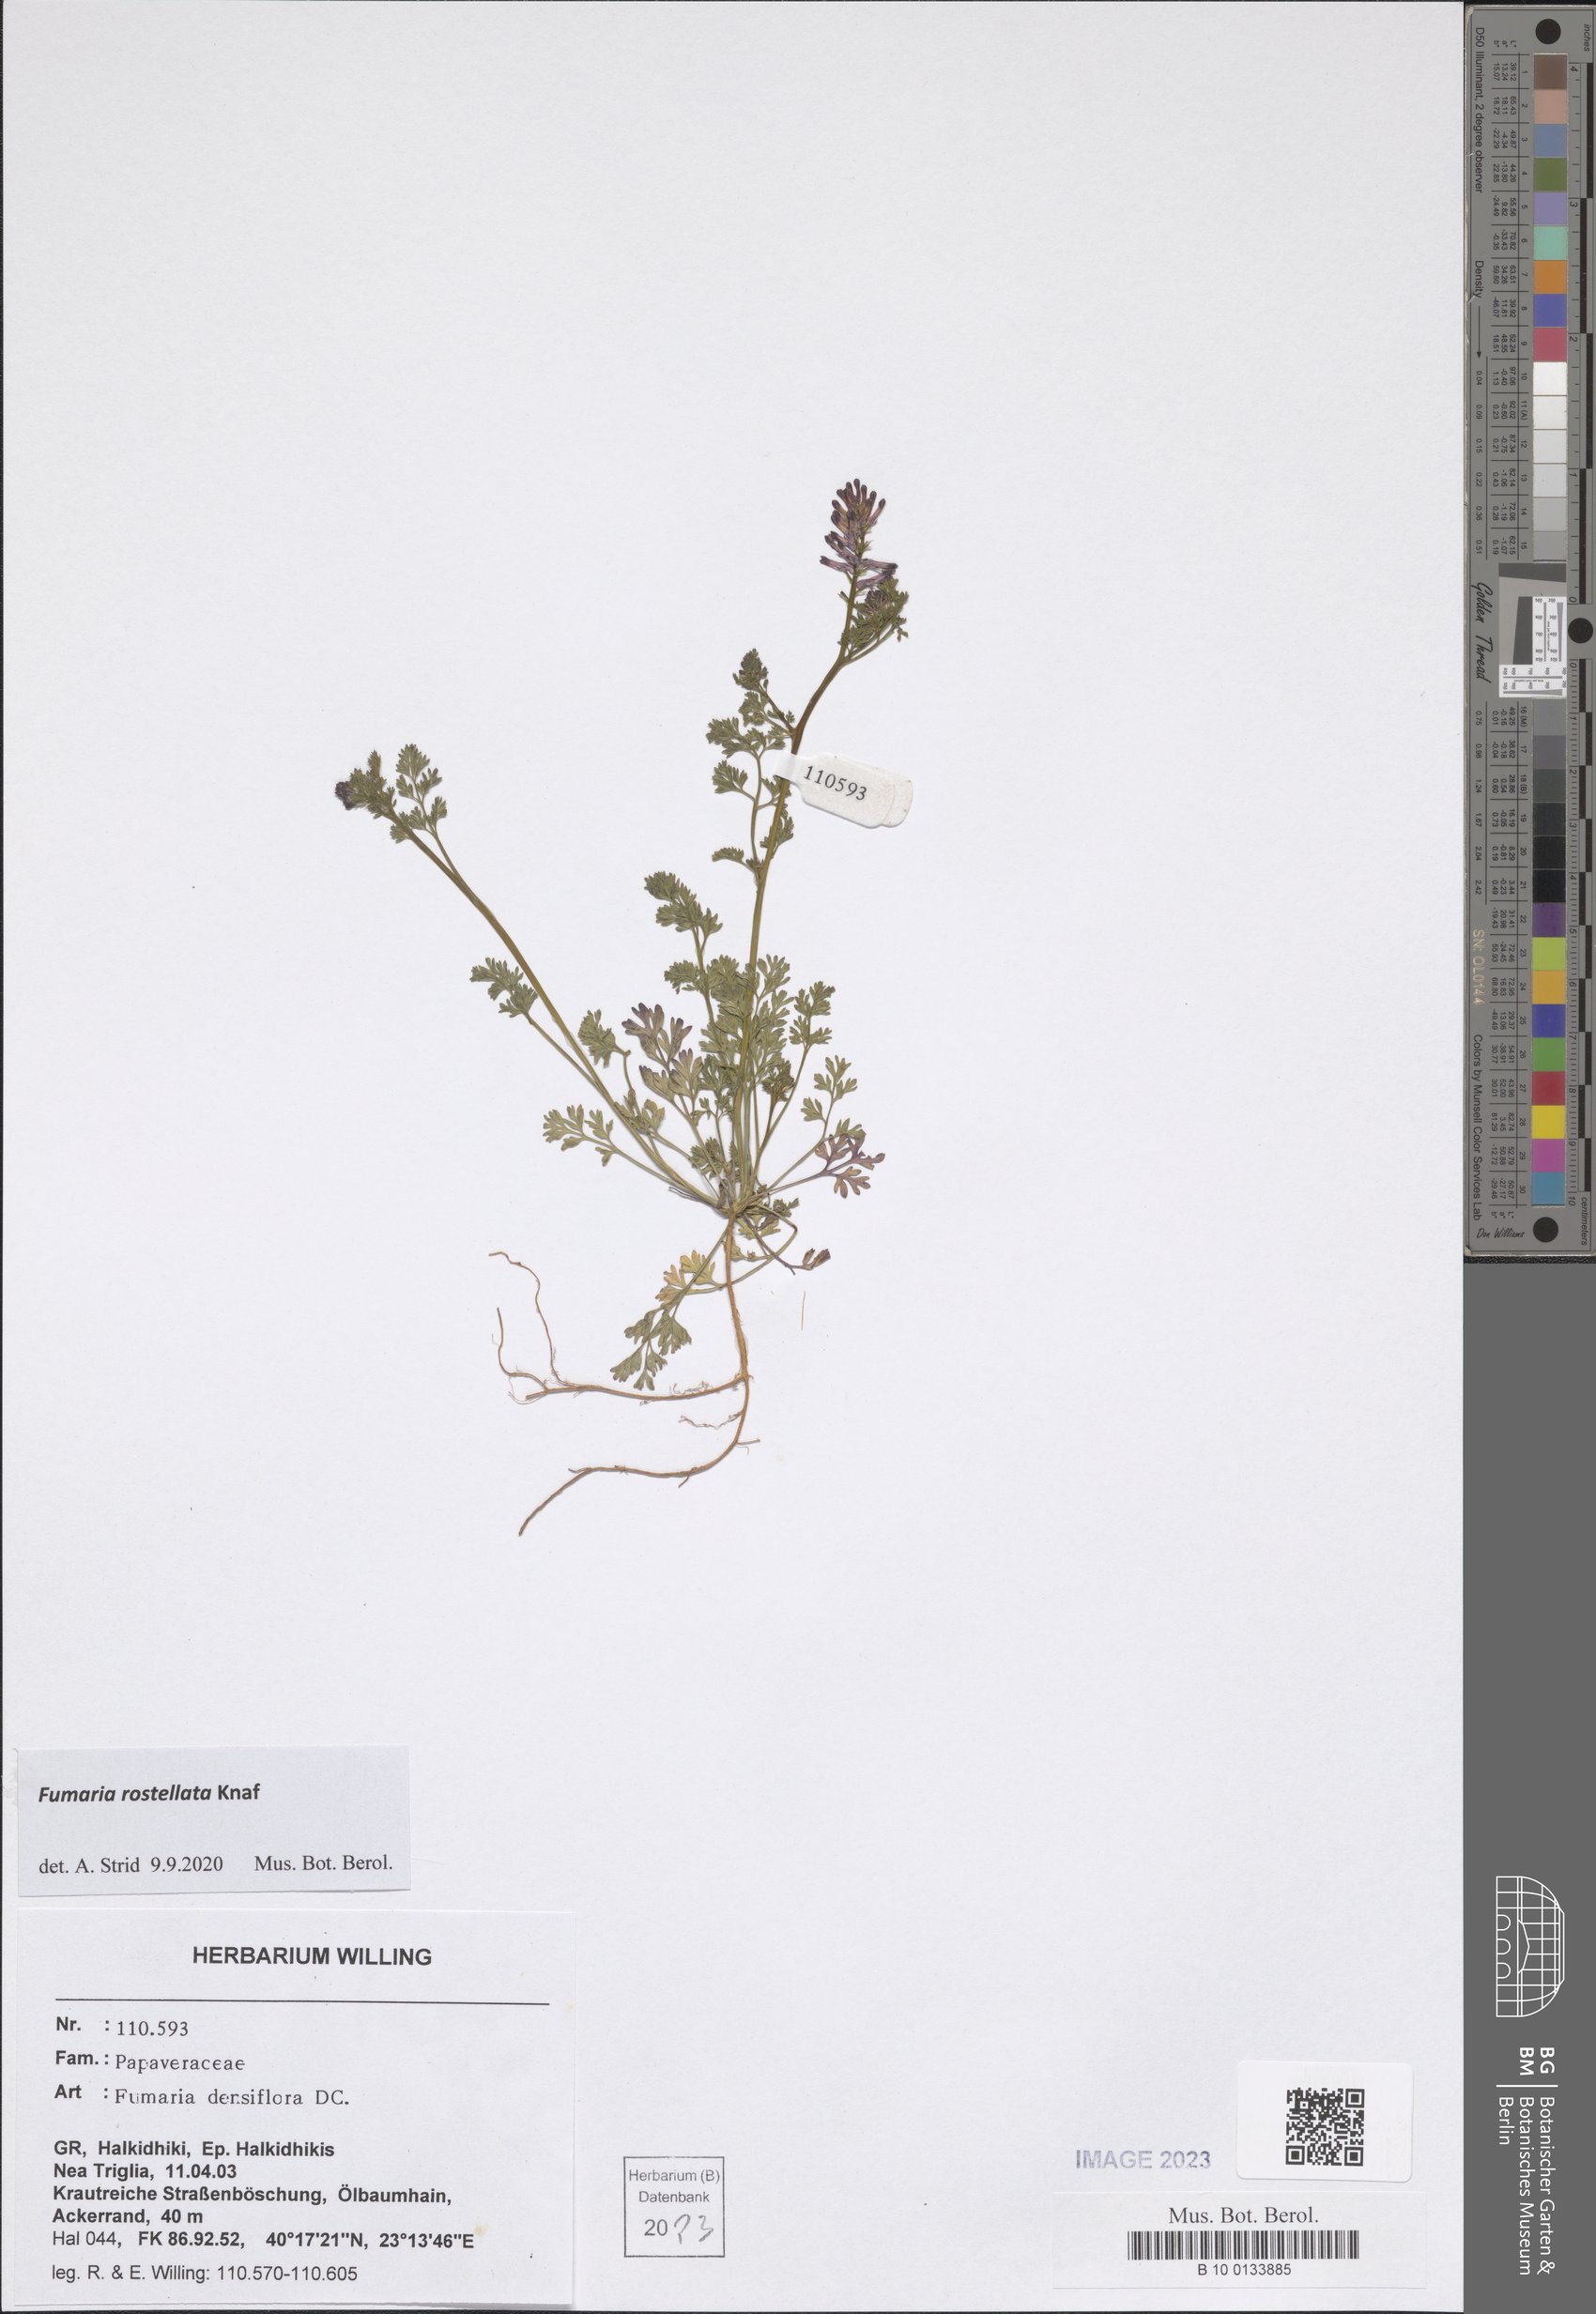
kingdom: Plantae
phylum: Tracheophyta
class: Magnoliopsida
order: Ranunculales
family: Papaveraceae
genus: Fumaria
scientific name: Fumaria rostellata
